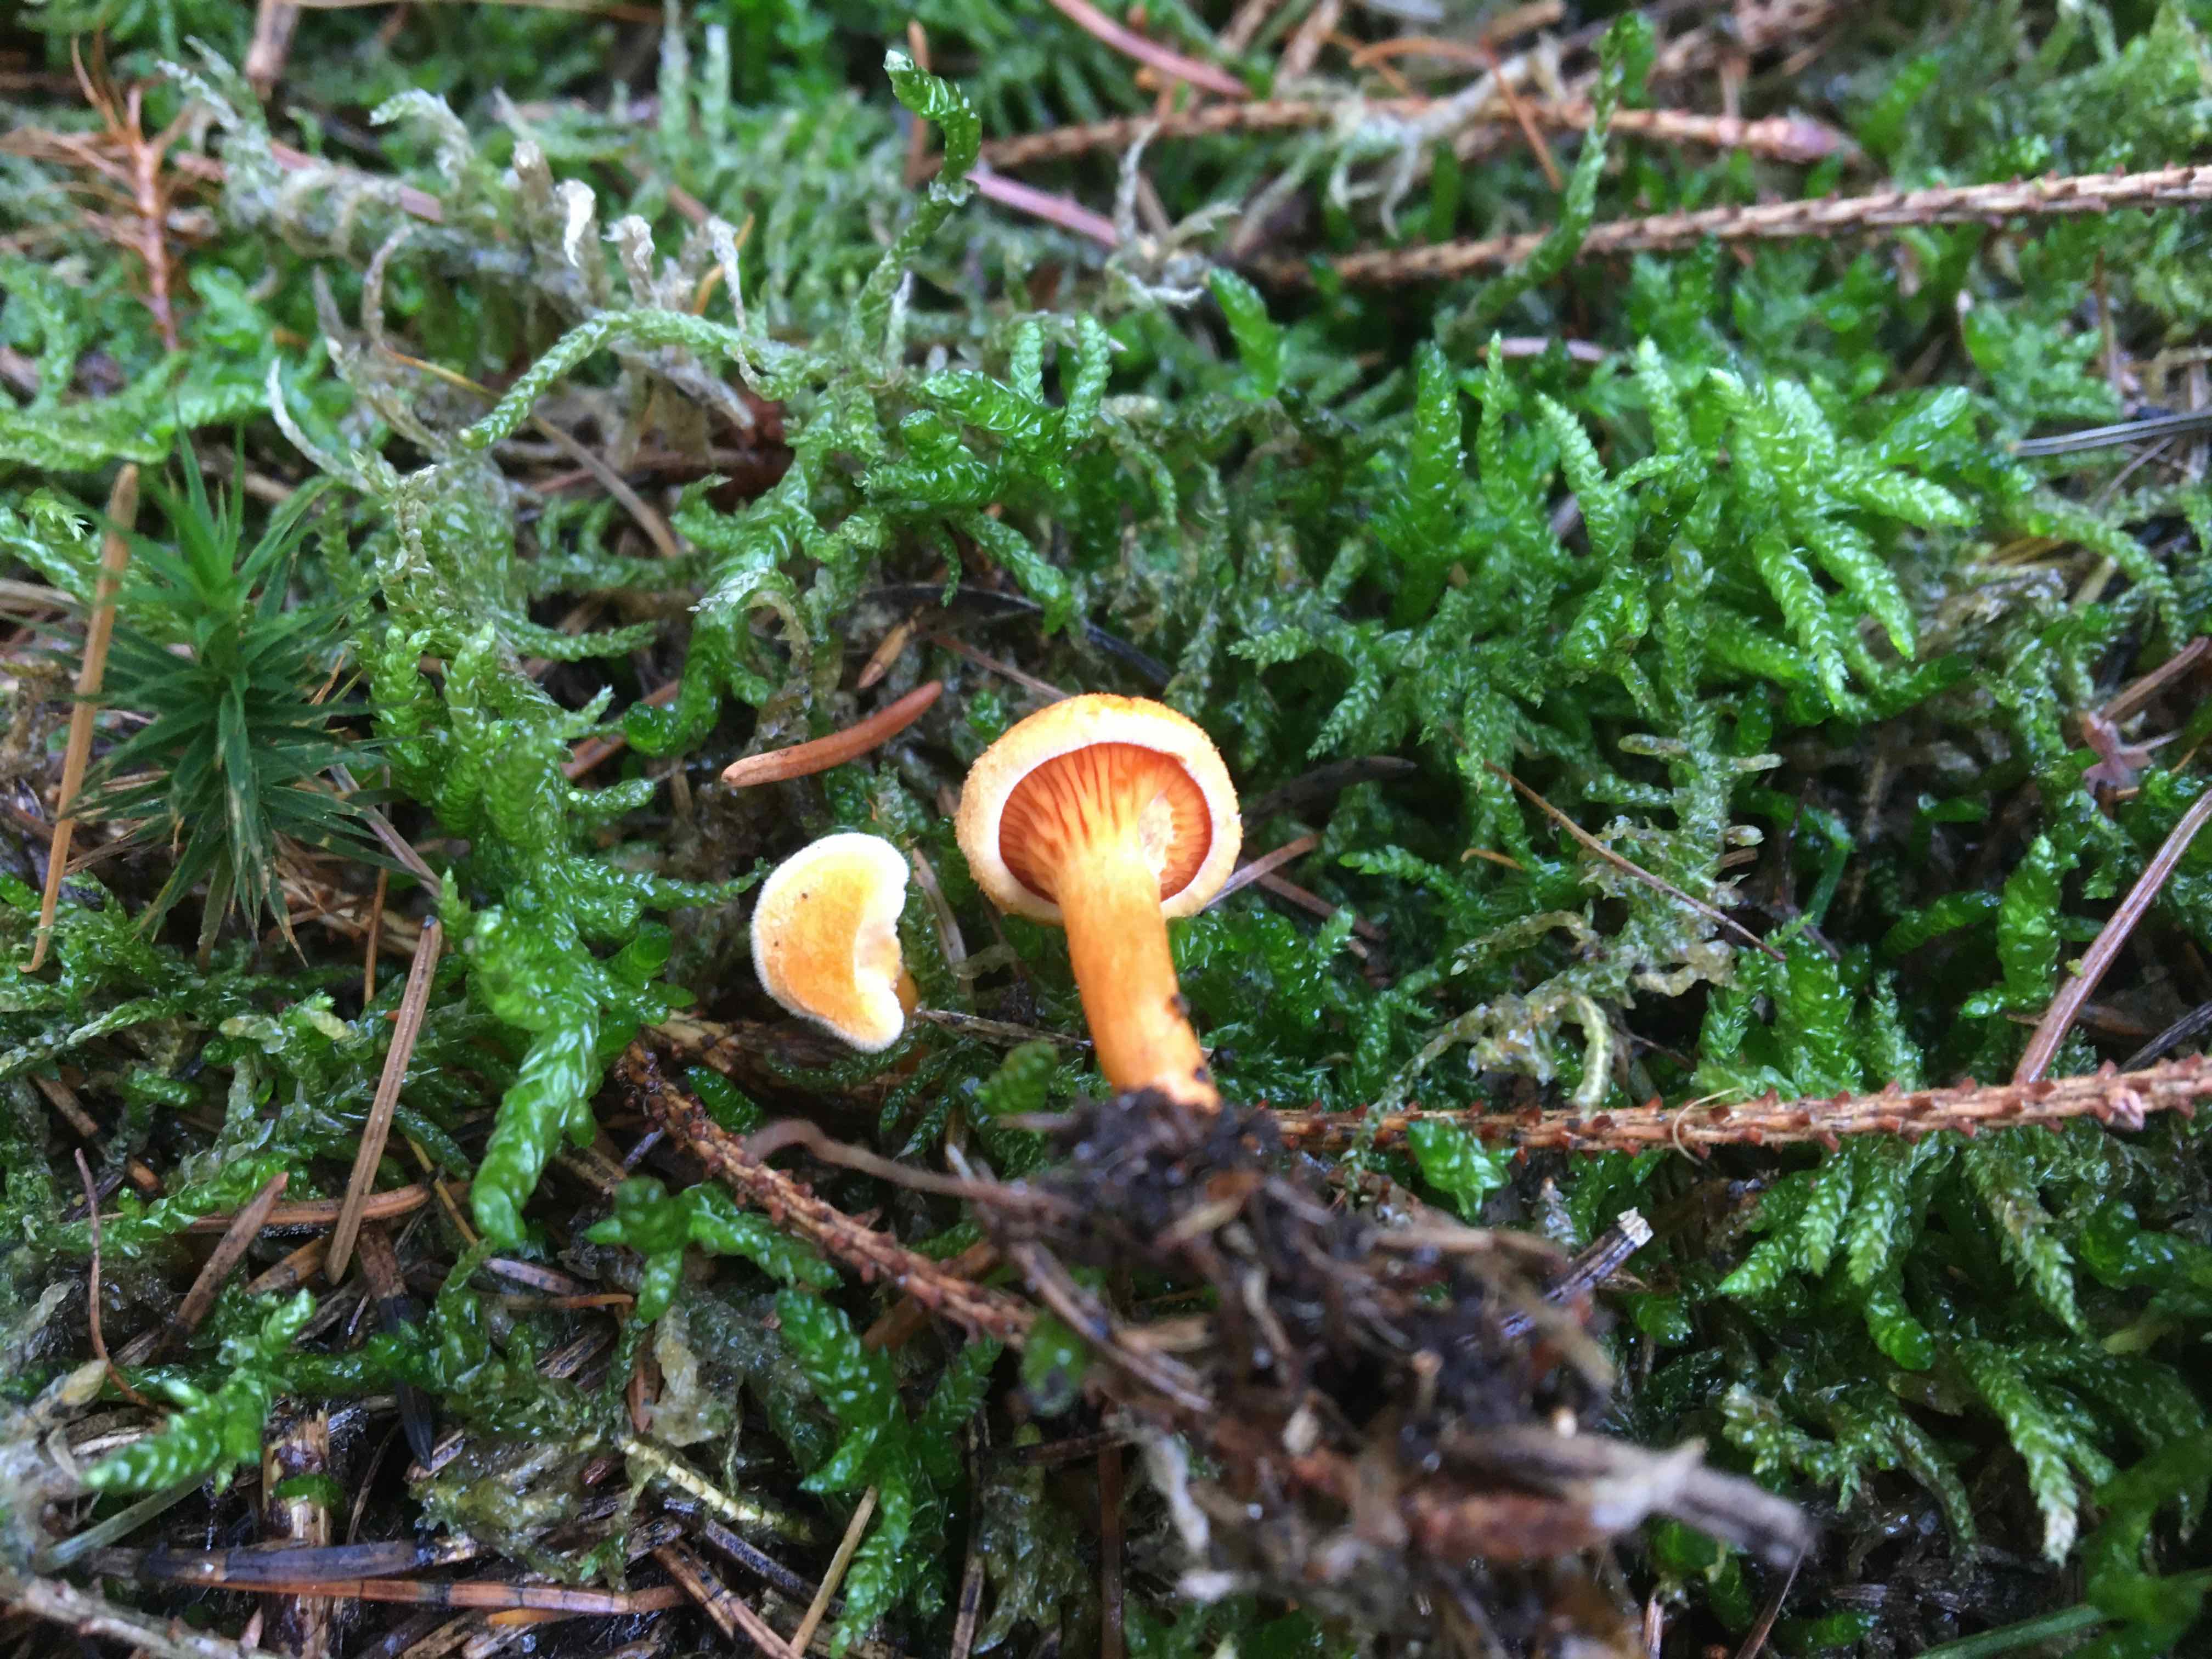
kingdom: Fungi
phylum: Basidiomycota
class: Agaricomycetes
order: Boletales
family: Hygrophoropsidaceae
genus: Hygrophoropsis
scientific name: Hygrophoropsis aurantiaca
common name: almindelig orangekantarel
